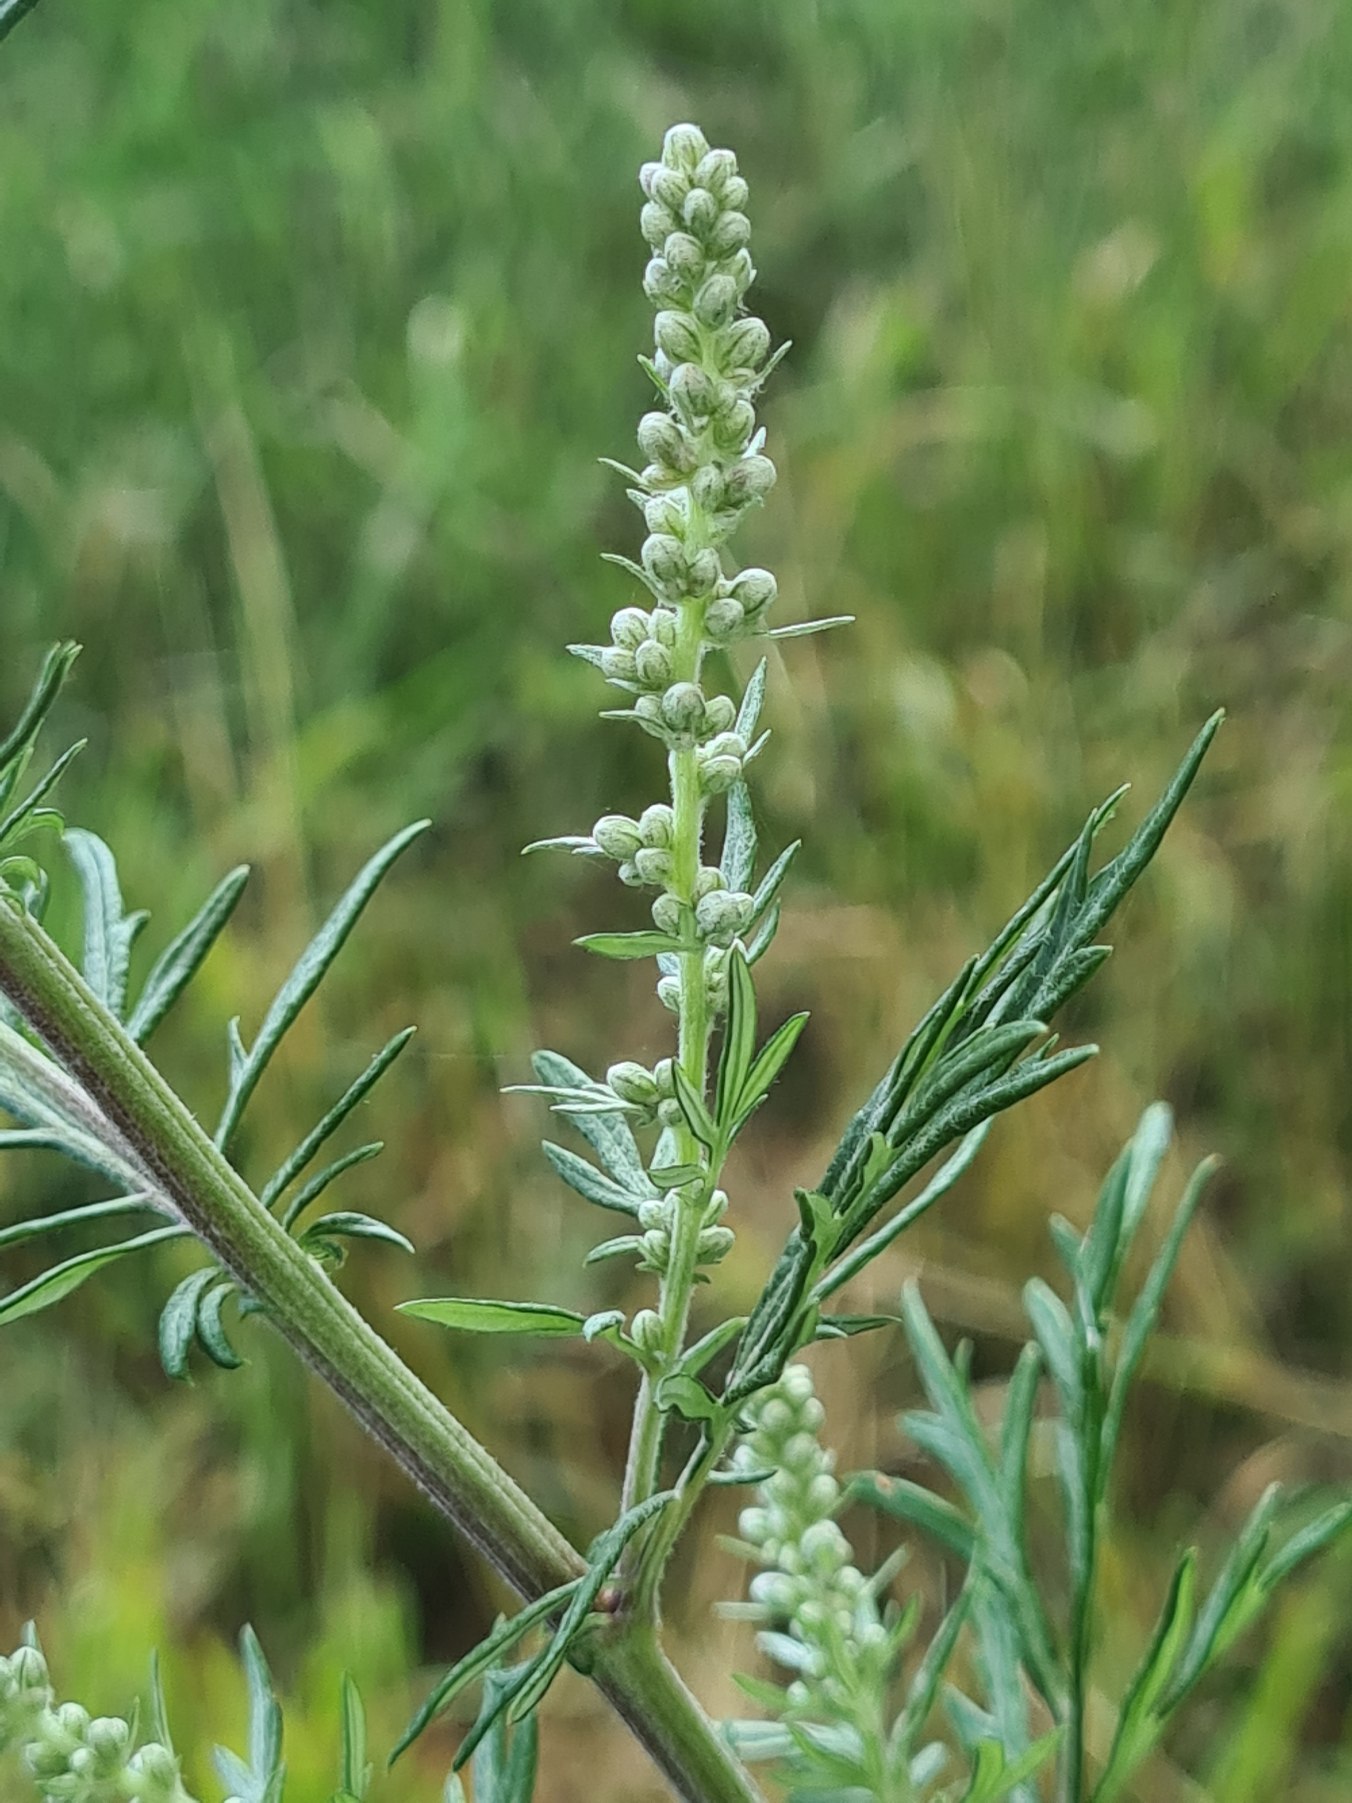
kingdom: Plantae
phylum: Tracheophyta
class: Magnoliopsida
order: Asterales
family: Asteraceae
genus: Artemisia
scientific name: Artemisia vulgaris
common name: Grå-bynke
